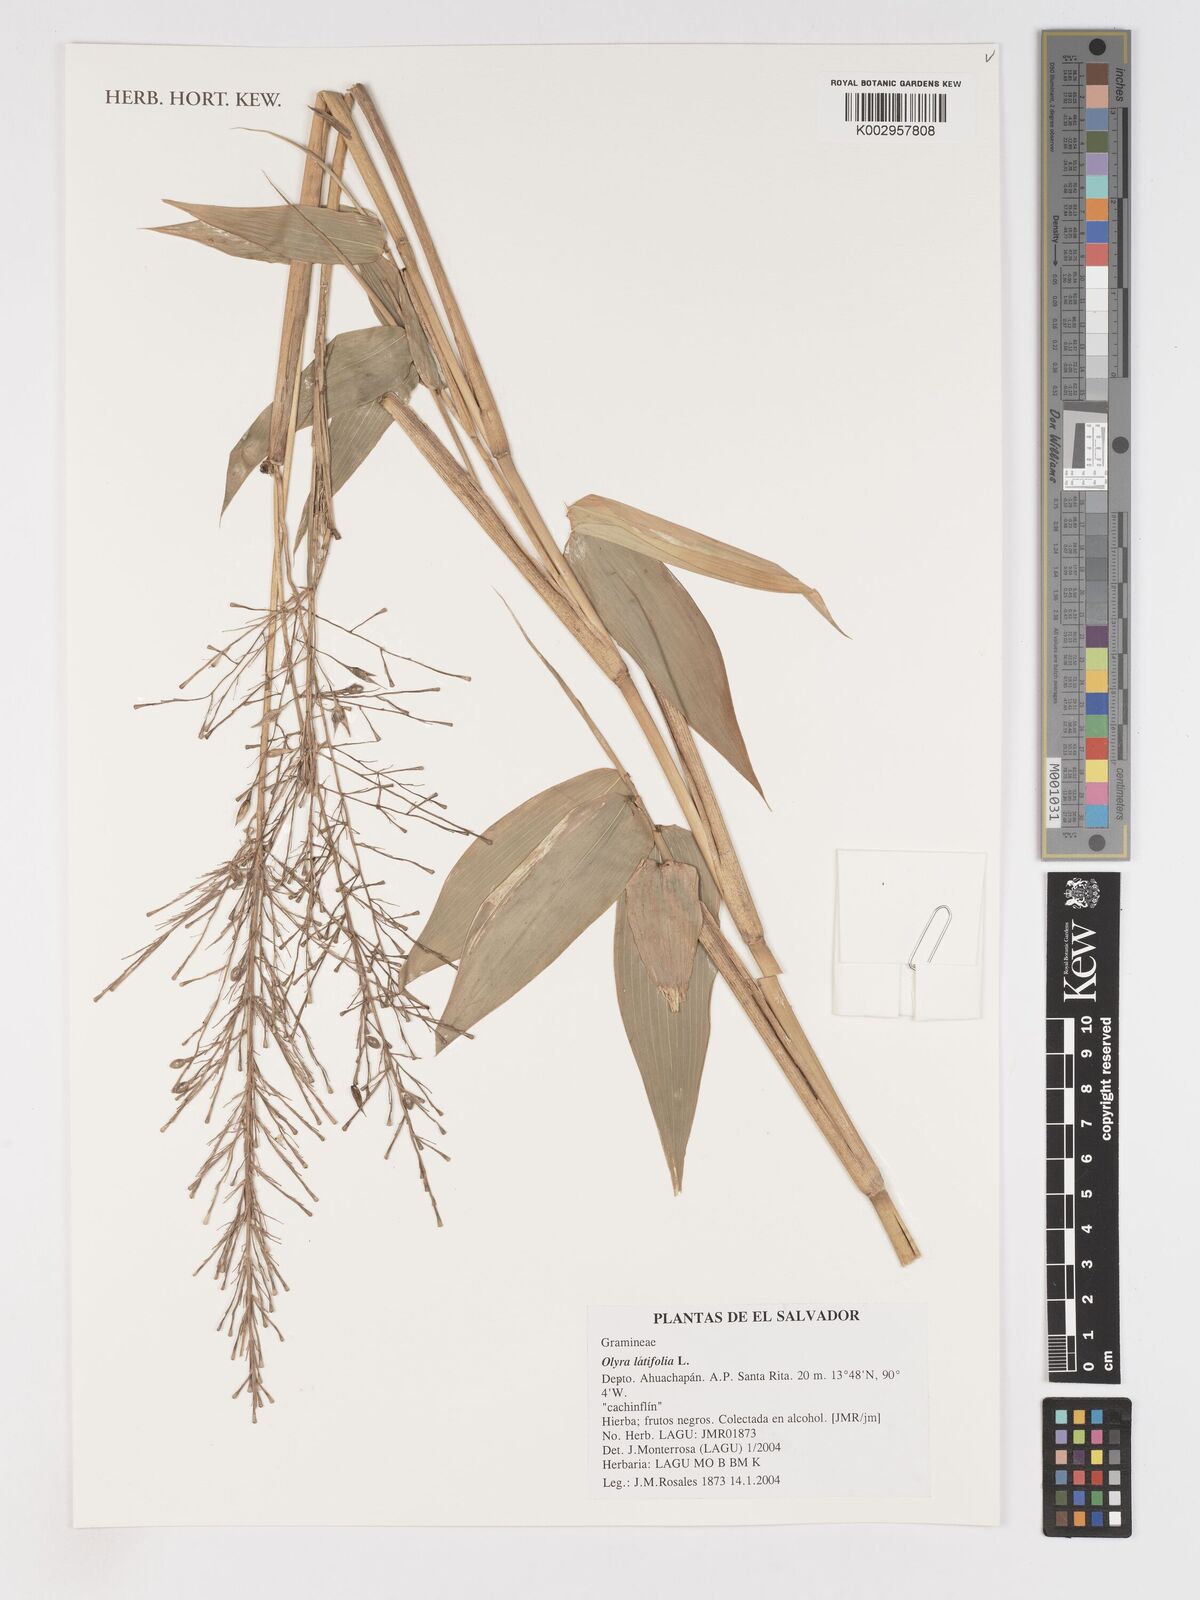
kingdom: Plantae
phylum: Tracheophyta
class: Liliopsida
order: Poales
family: Poaceae
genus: Olyra
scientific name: Olyra latifolia
